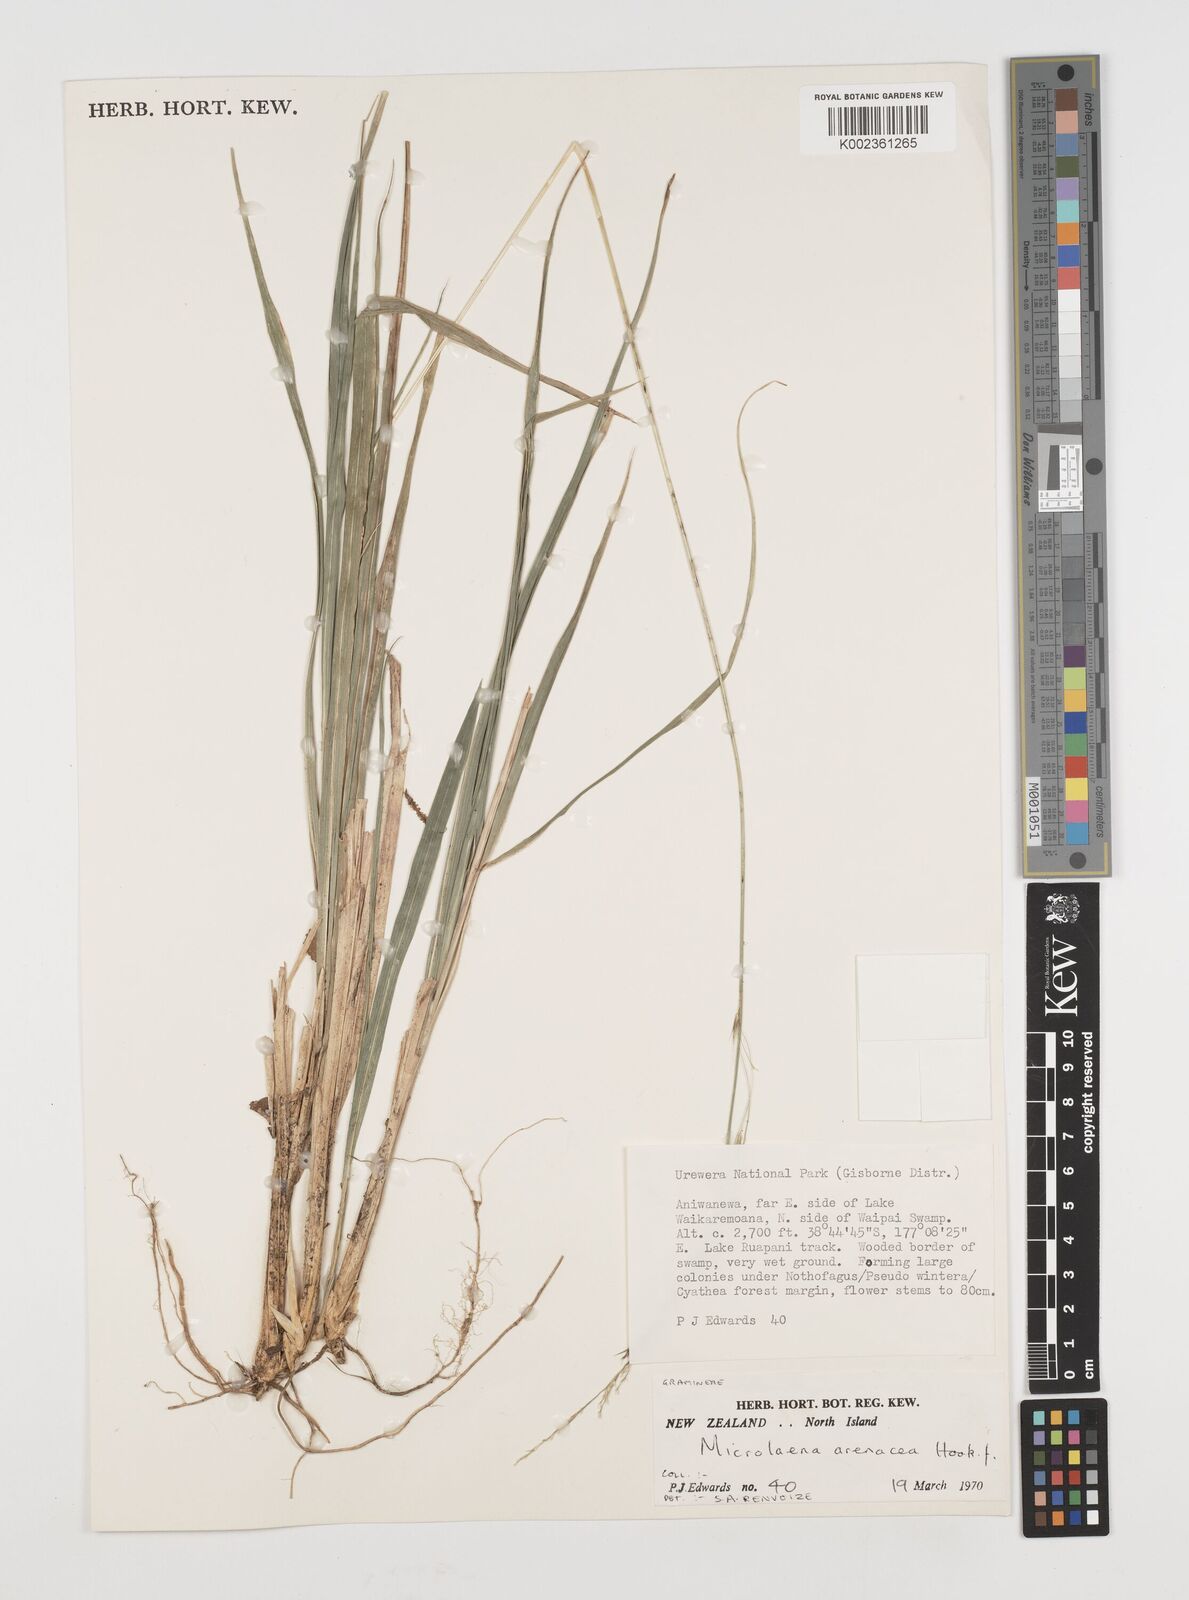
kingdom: Plantae
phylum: Tracheophyta
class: Liliopsida
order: Poales
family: Poaceae
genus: Ehrharta
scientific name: Ehrharta diplax
